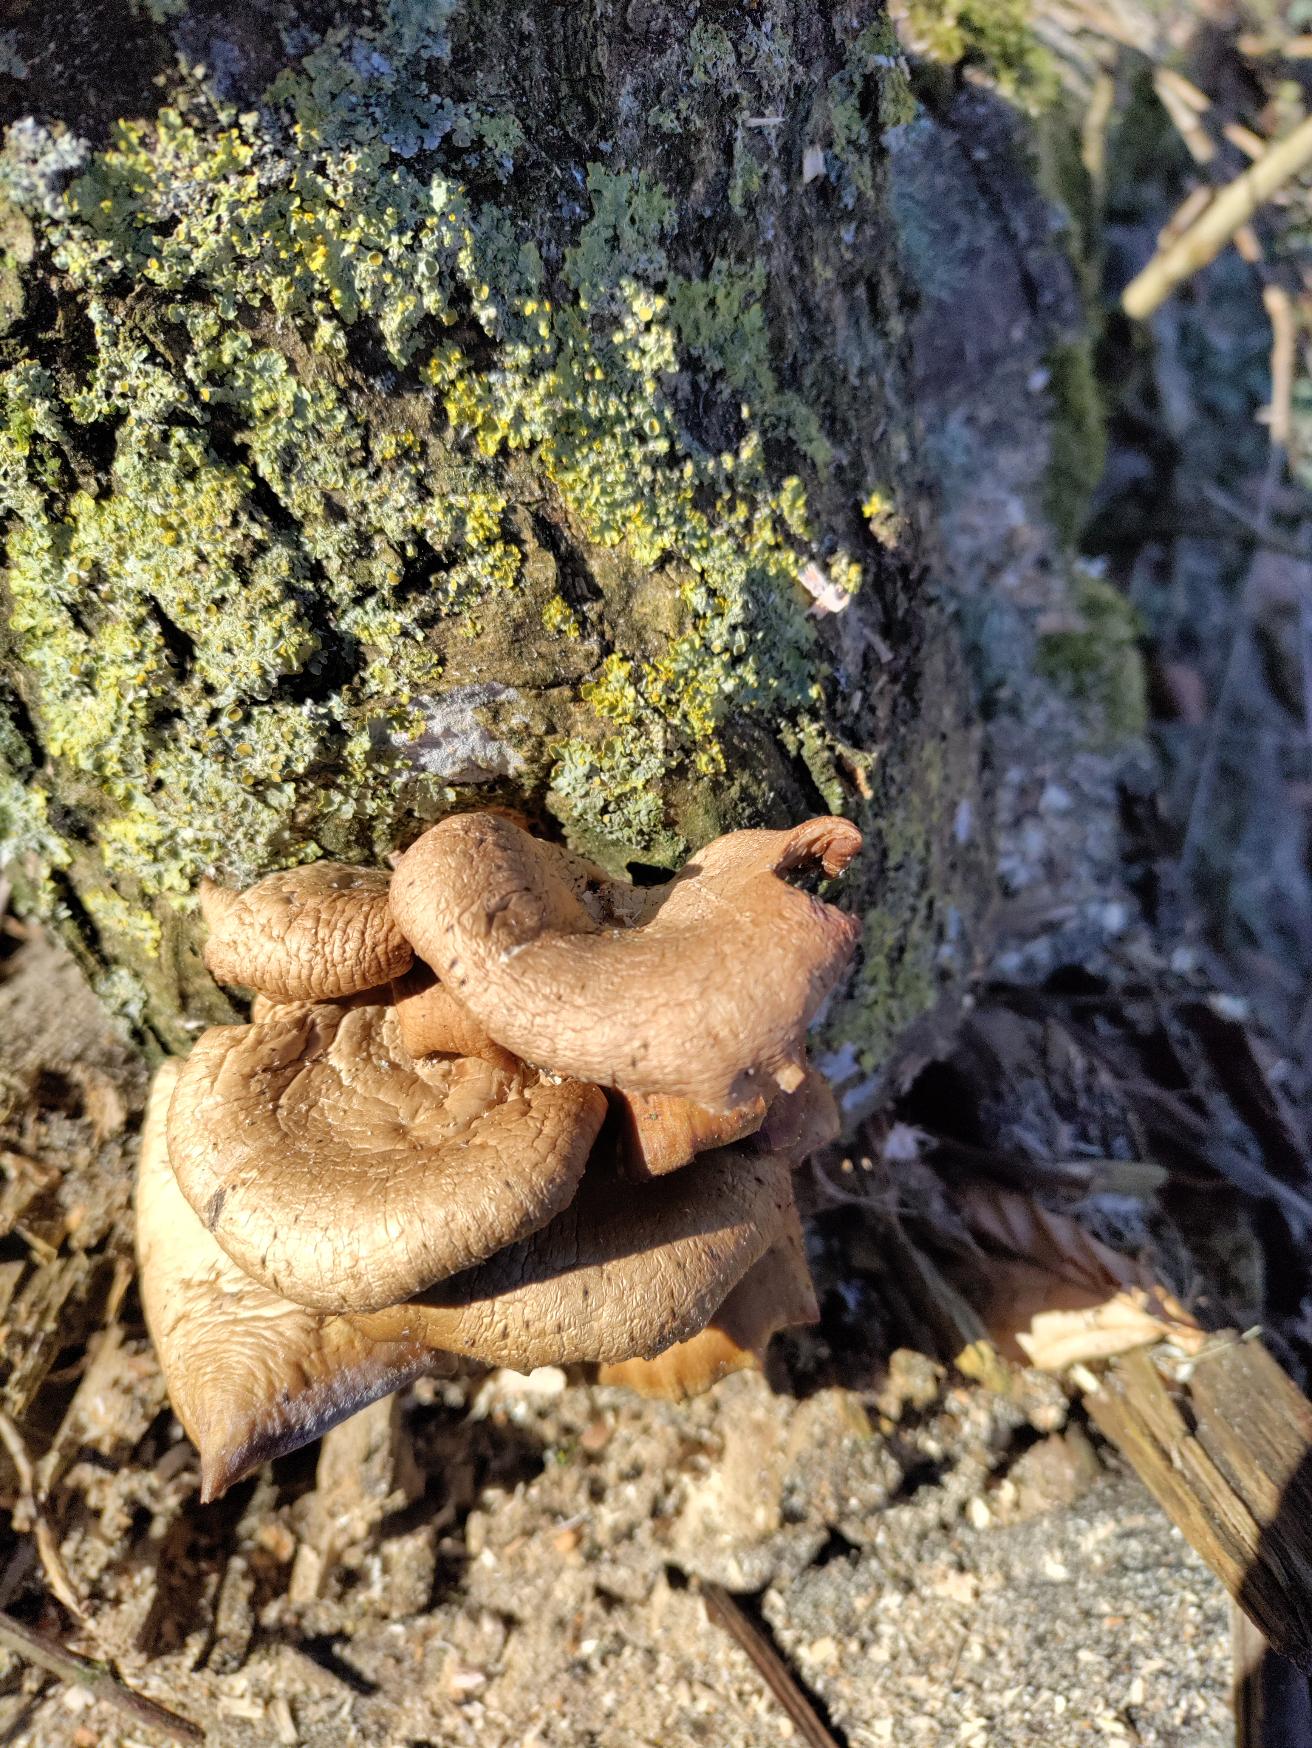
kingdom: Fungi
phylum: Basidiomycota
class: Agaricomycetes
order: Agaricales
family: Pleurotaceae
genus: Pleurotus
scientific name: Pleurotus ostreatus
